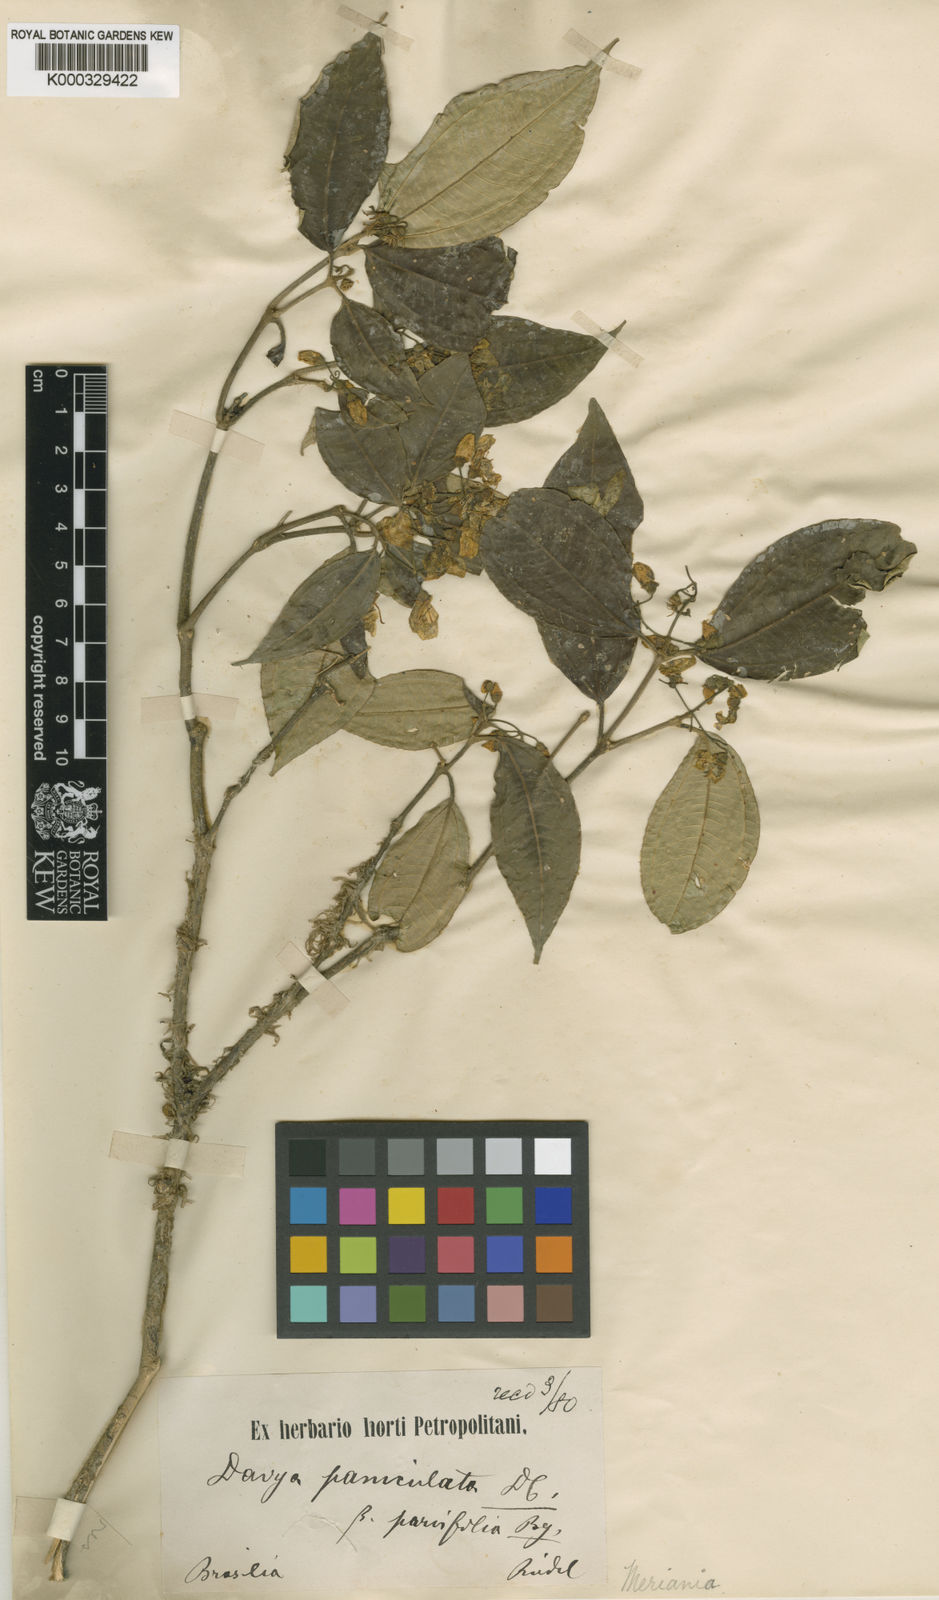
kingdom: Plantae
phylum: Tracheophyta
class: Magnoliopsida
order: Myrtales
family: Melastomataceae
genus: Meriania
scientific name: Meriania paniculata
